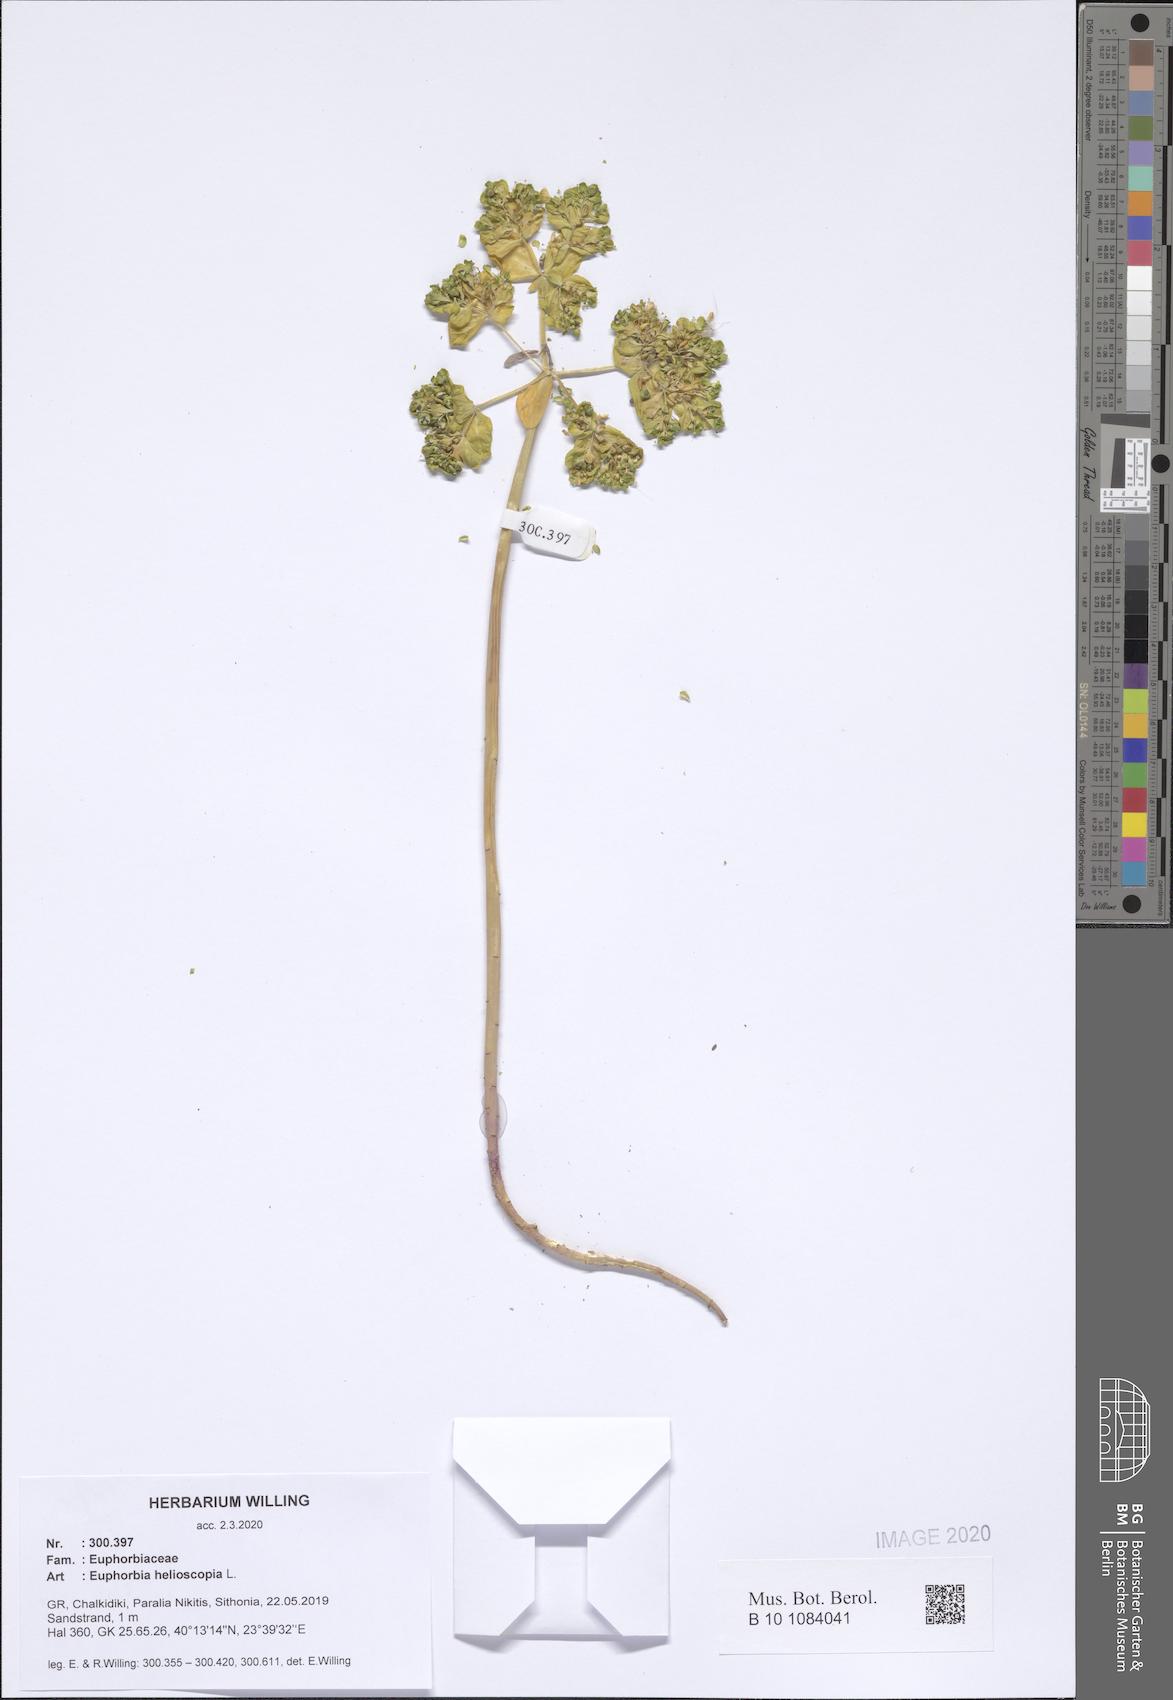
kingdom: Plantae
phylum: Tracheophyta
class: Magnoliopsida
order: Malpighiales
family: Euphorbiaceae
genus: Euphorbia
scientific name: Euphorbia helioscopia
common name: Sun spurge
